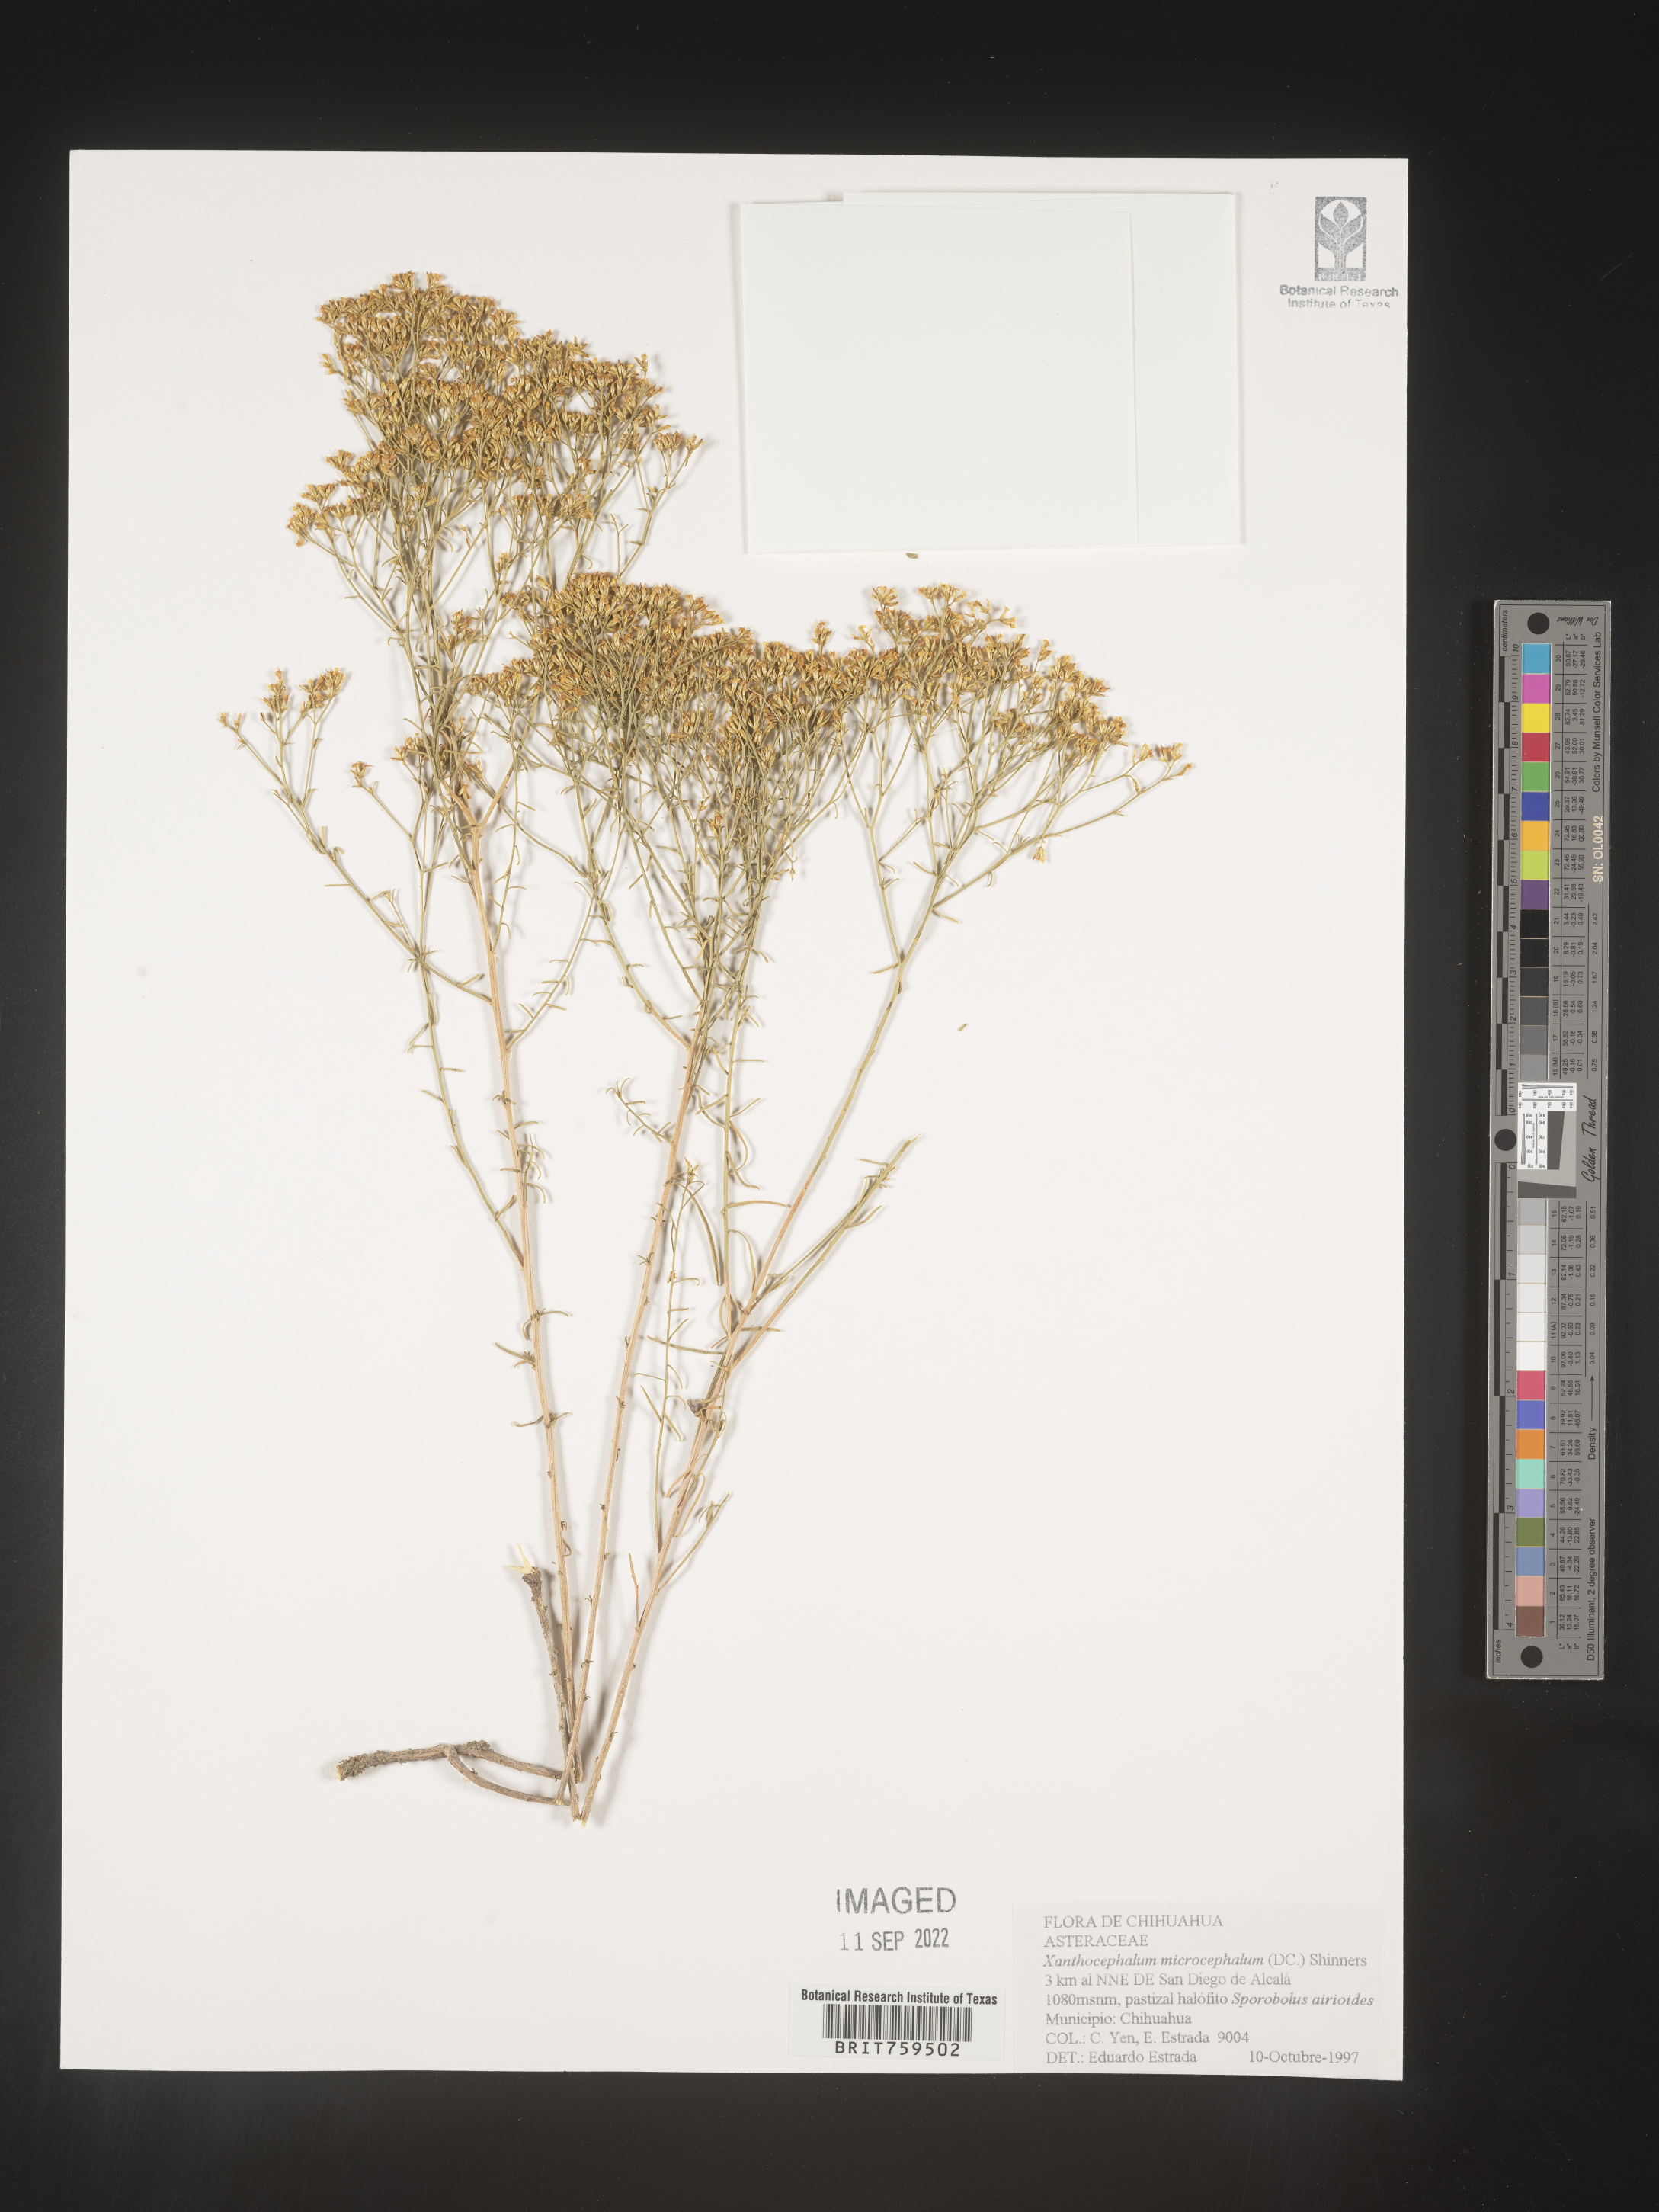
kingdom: Plantae
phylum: Tracheophyta
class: Magnoliopsida
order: Asterales
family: Asteraceae
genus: Xanthocephalum
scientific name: Xanthocephalum
